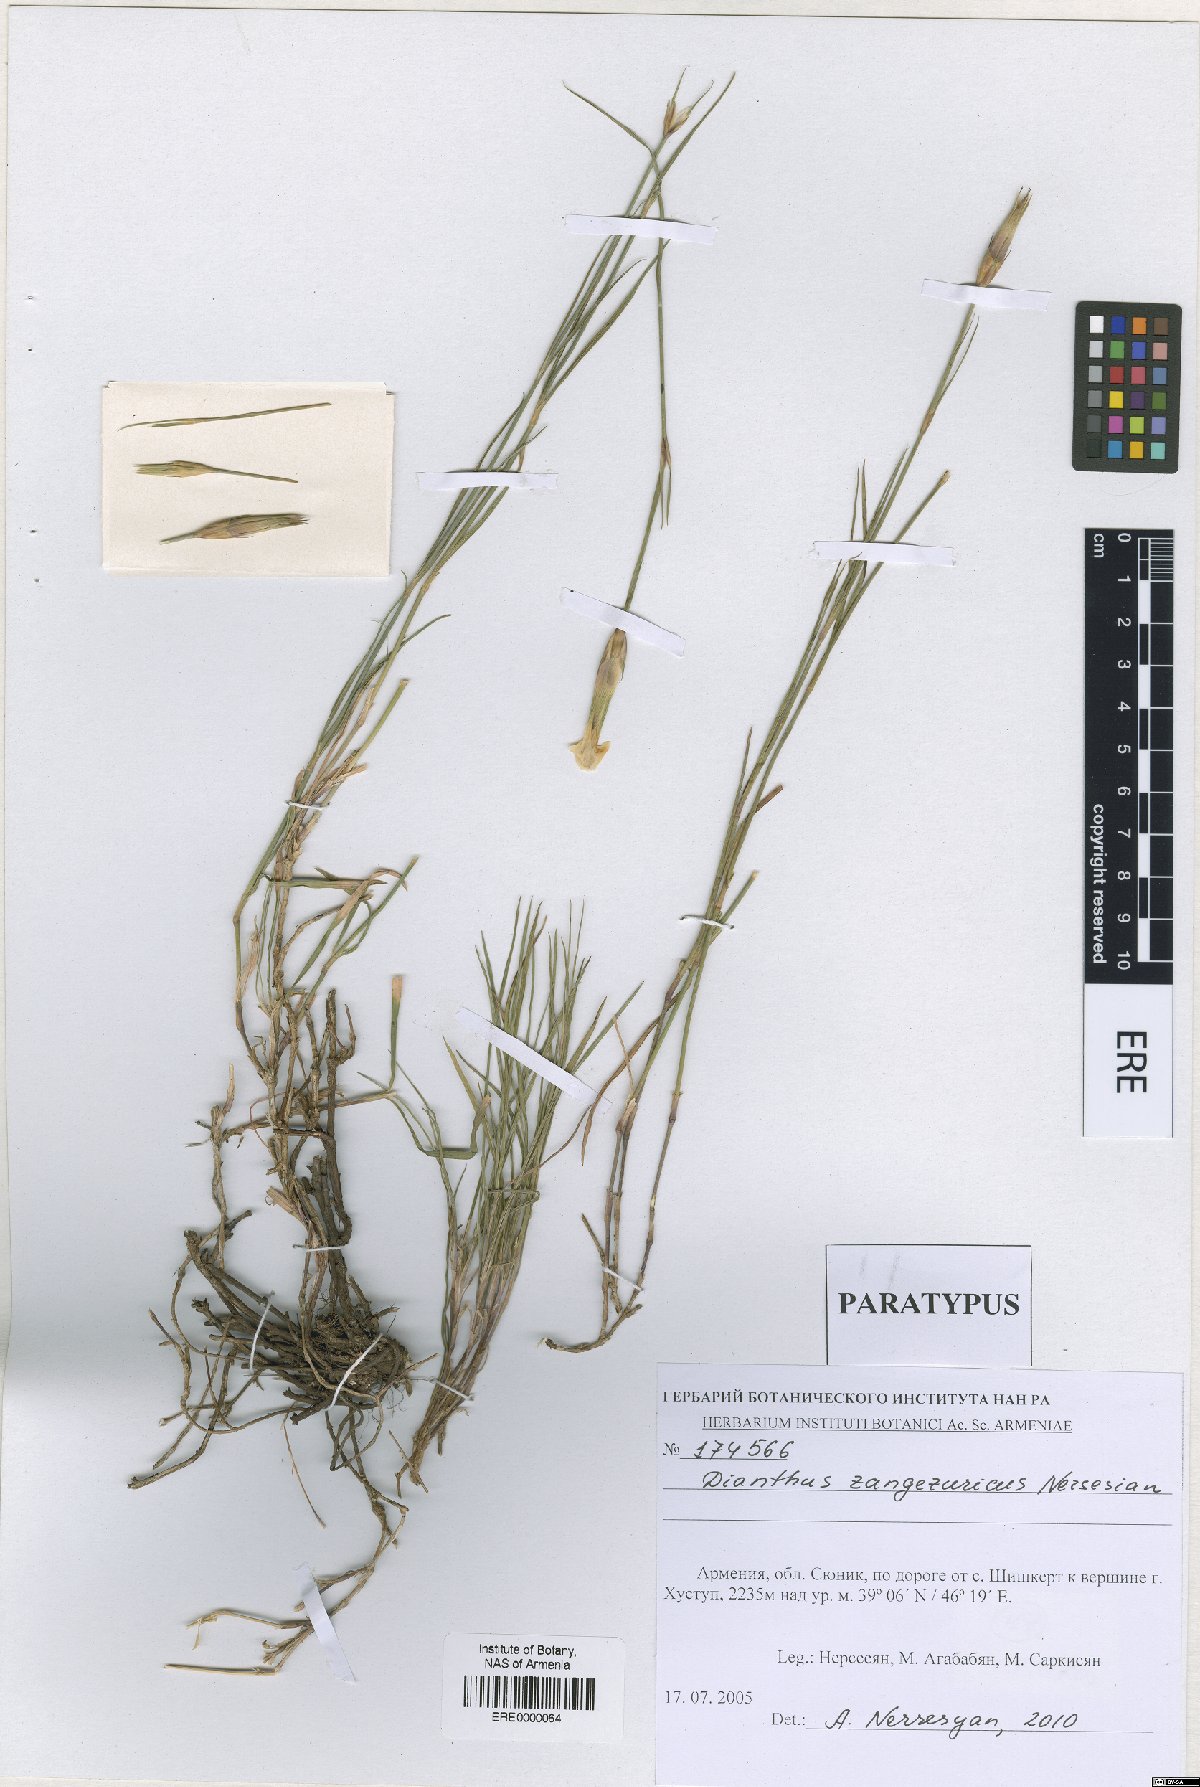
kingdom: Plantae
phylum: Tracheophyta
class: Magnoliopsida
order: Caryophyllales
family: Caryophyllaceae
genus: Dianthus
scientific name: Dianthus zangezuricus
